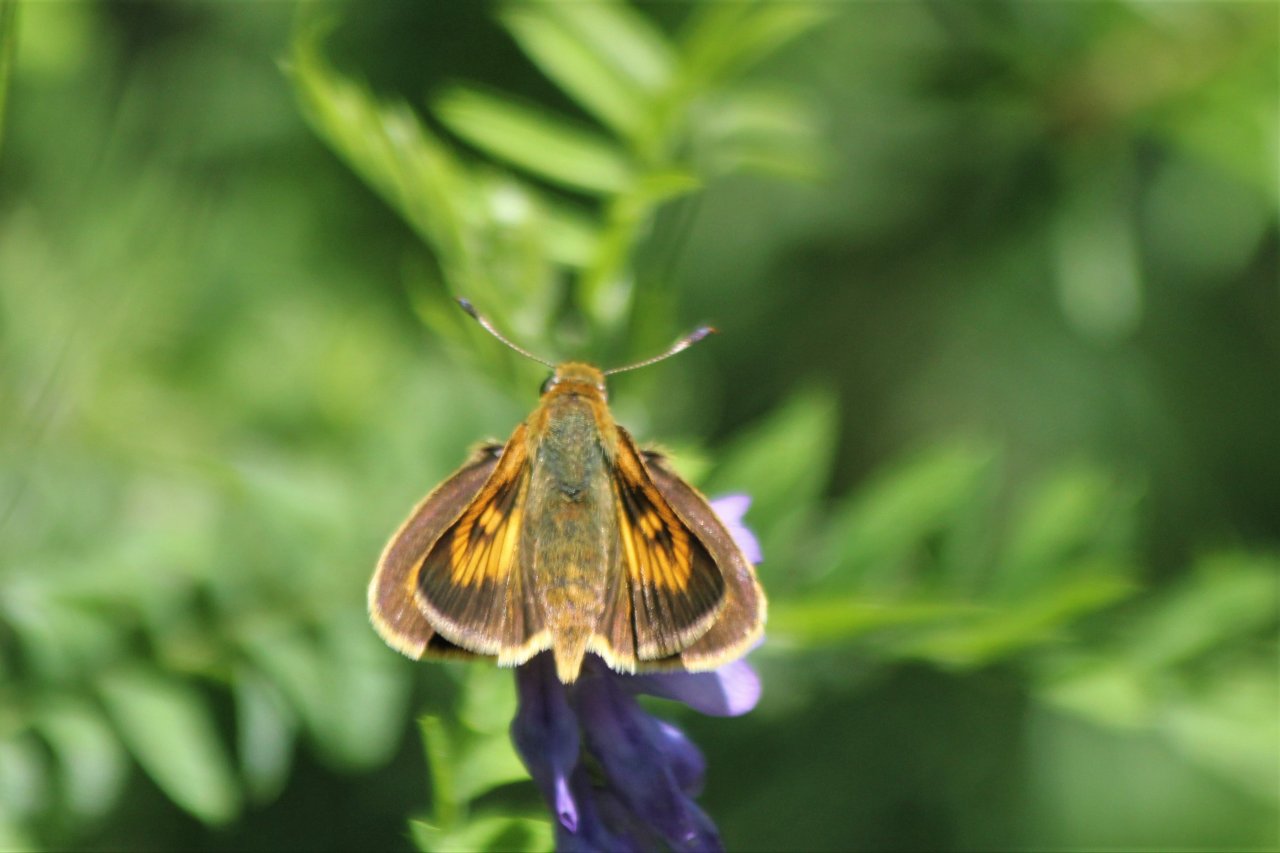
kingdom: Animalia
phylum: Arthropoda
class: Insecta
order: Lepidoptera
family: Hesperiidae
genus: Atrytone
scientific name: Atrytone delaware
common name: Delaware Skipper
